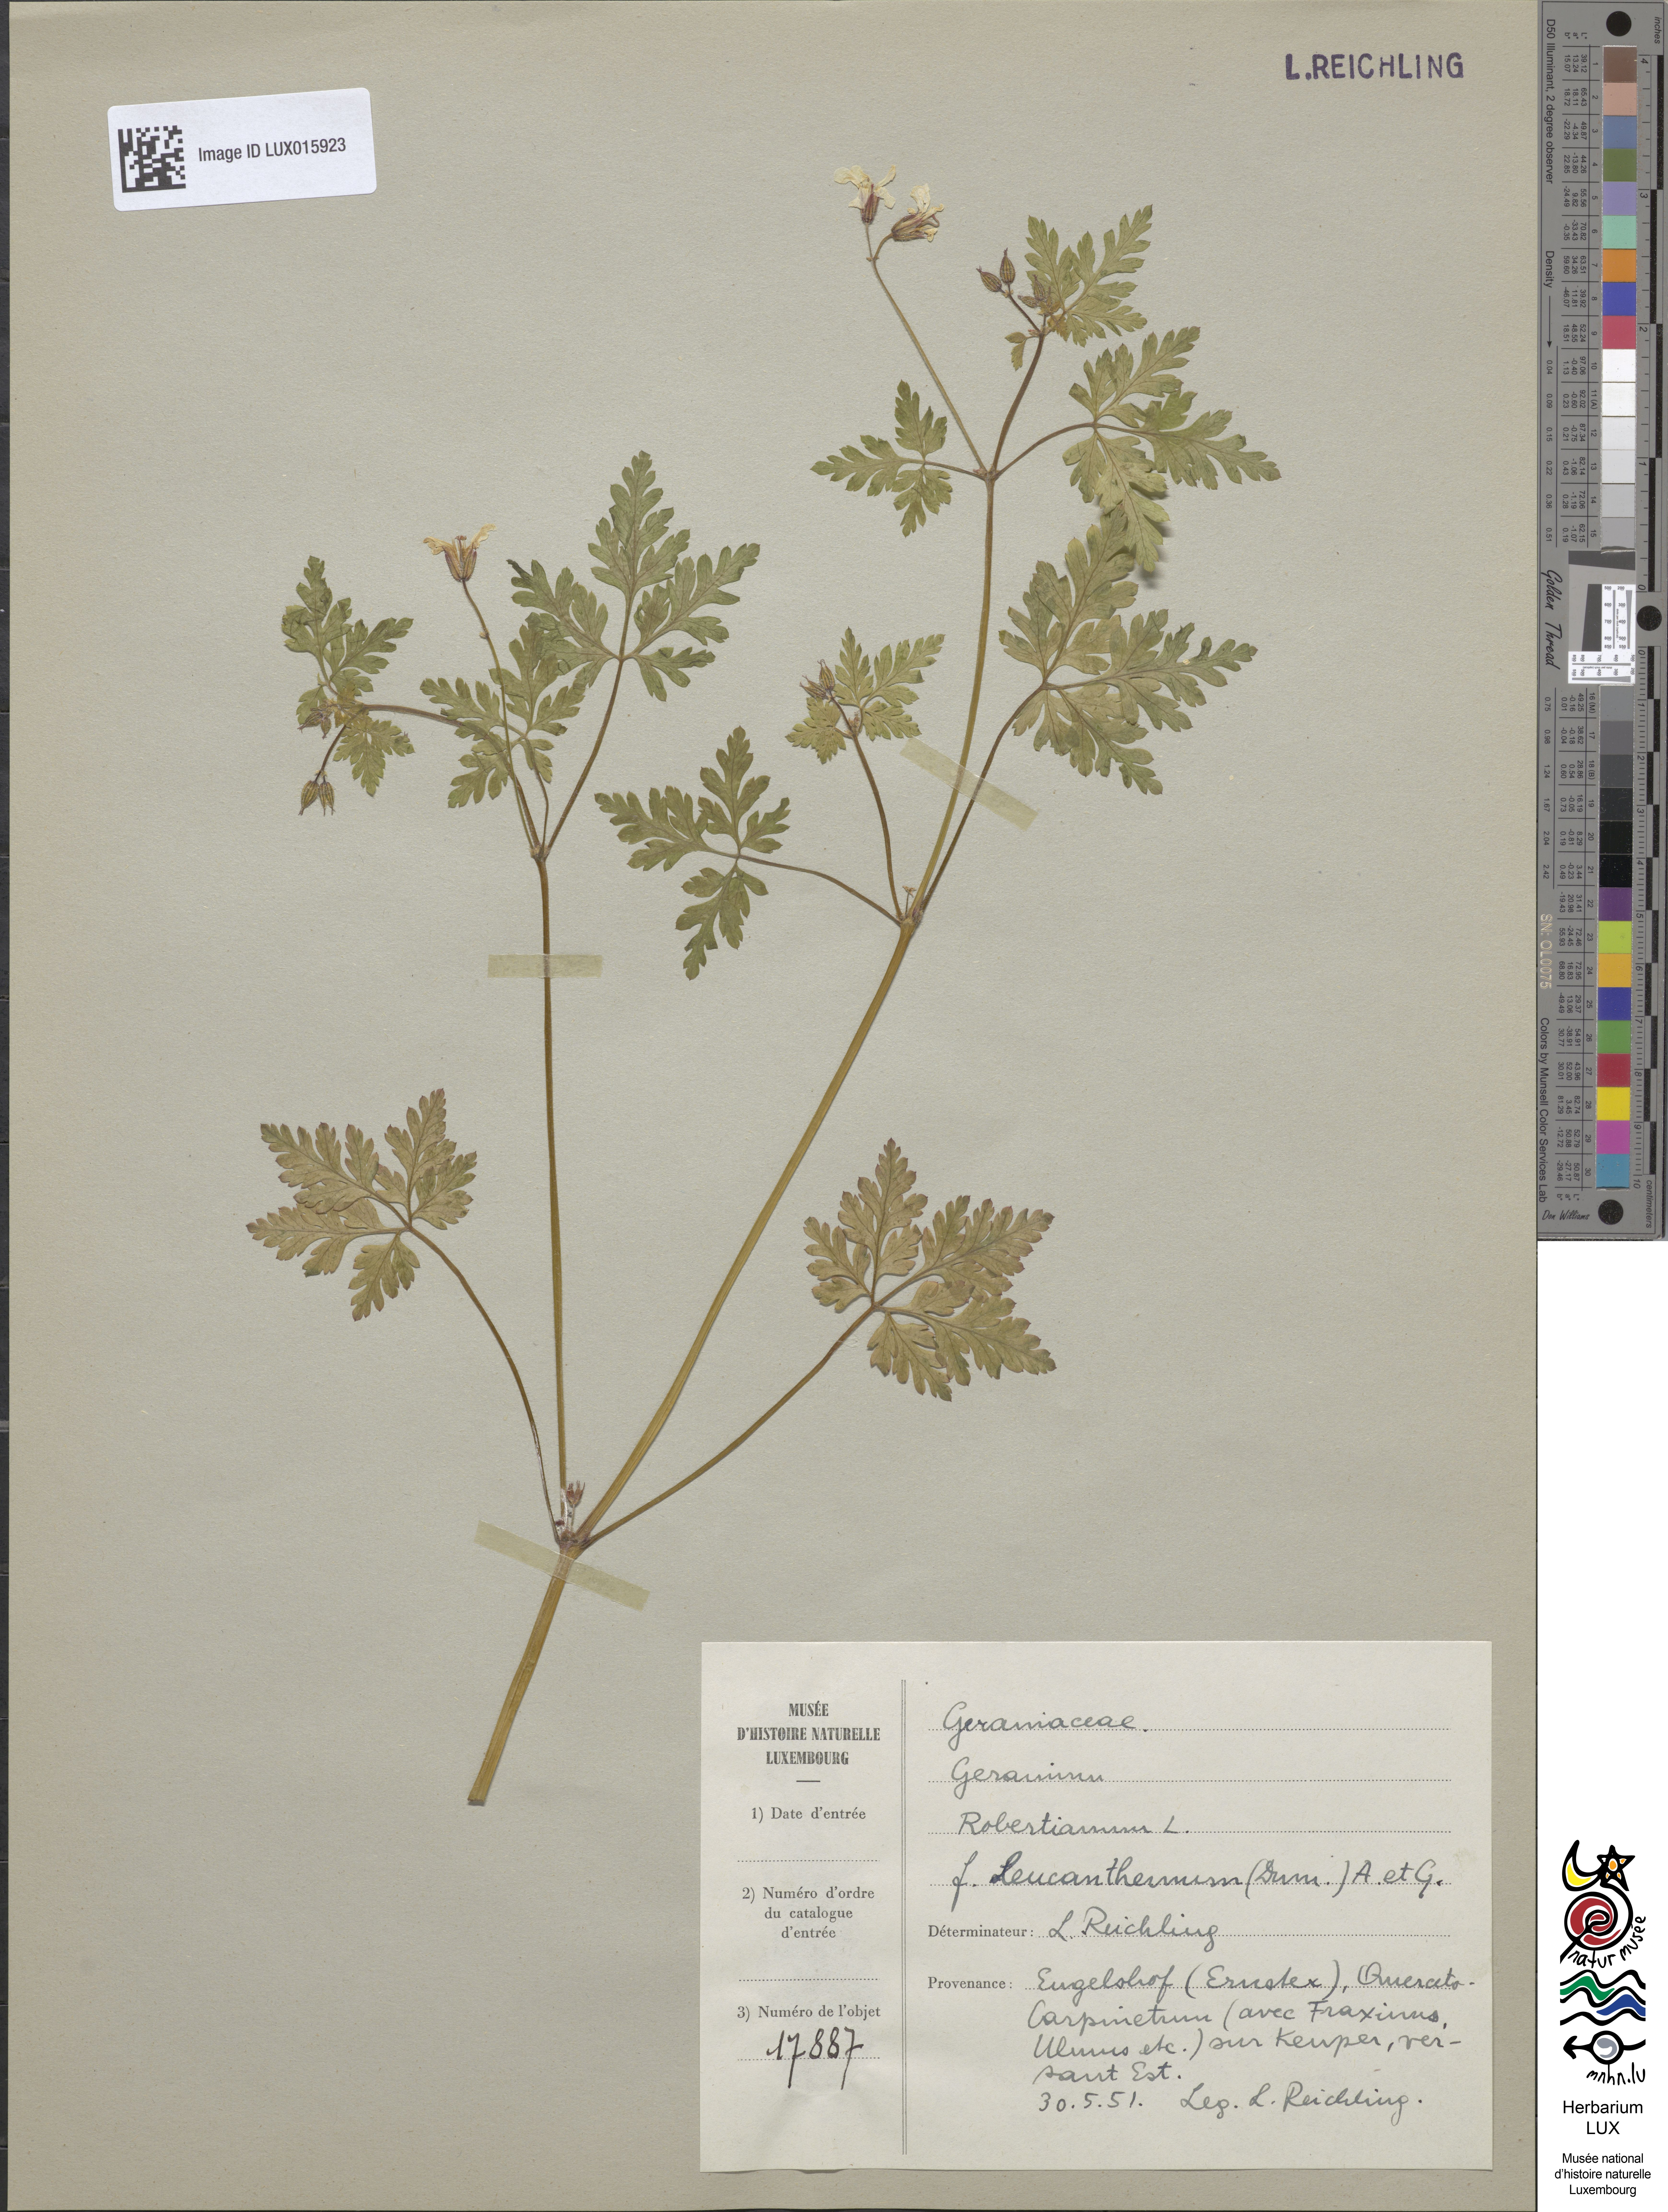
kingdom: Plantae
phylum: Tracheophyta
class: Magnoliopsida
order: Geraniales
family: Geraniaceae
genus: Geranium
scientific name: Geranium robertianum
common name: Herb-robert
